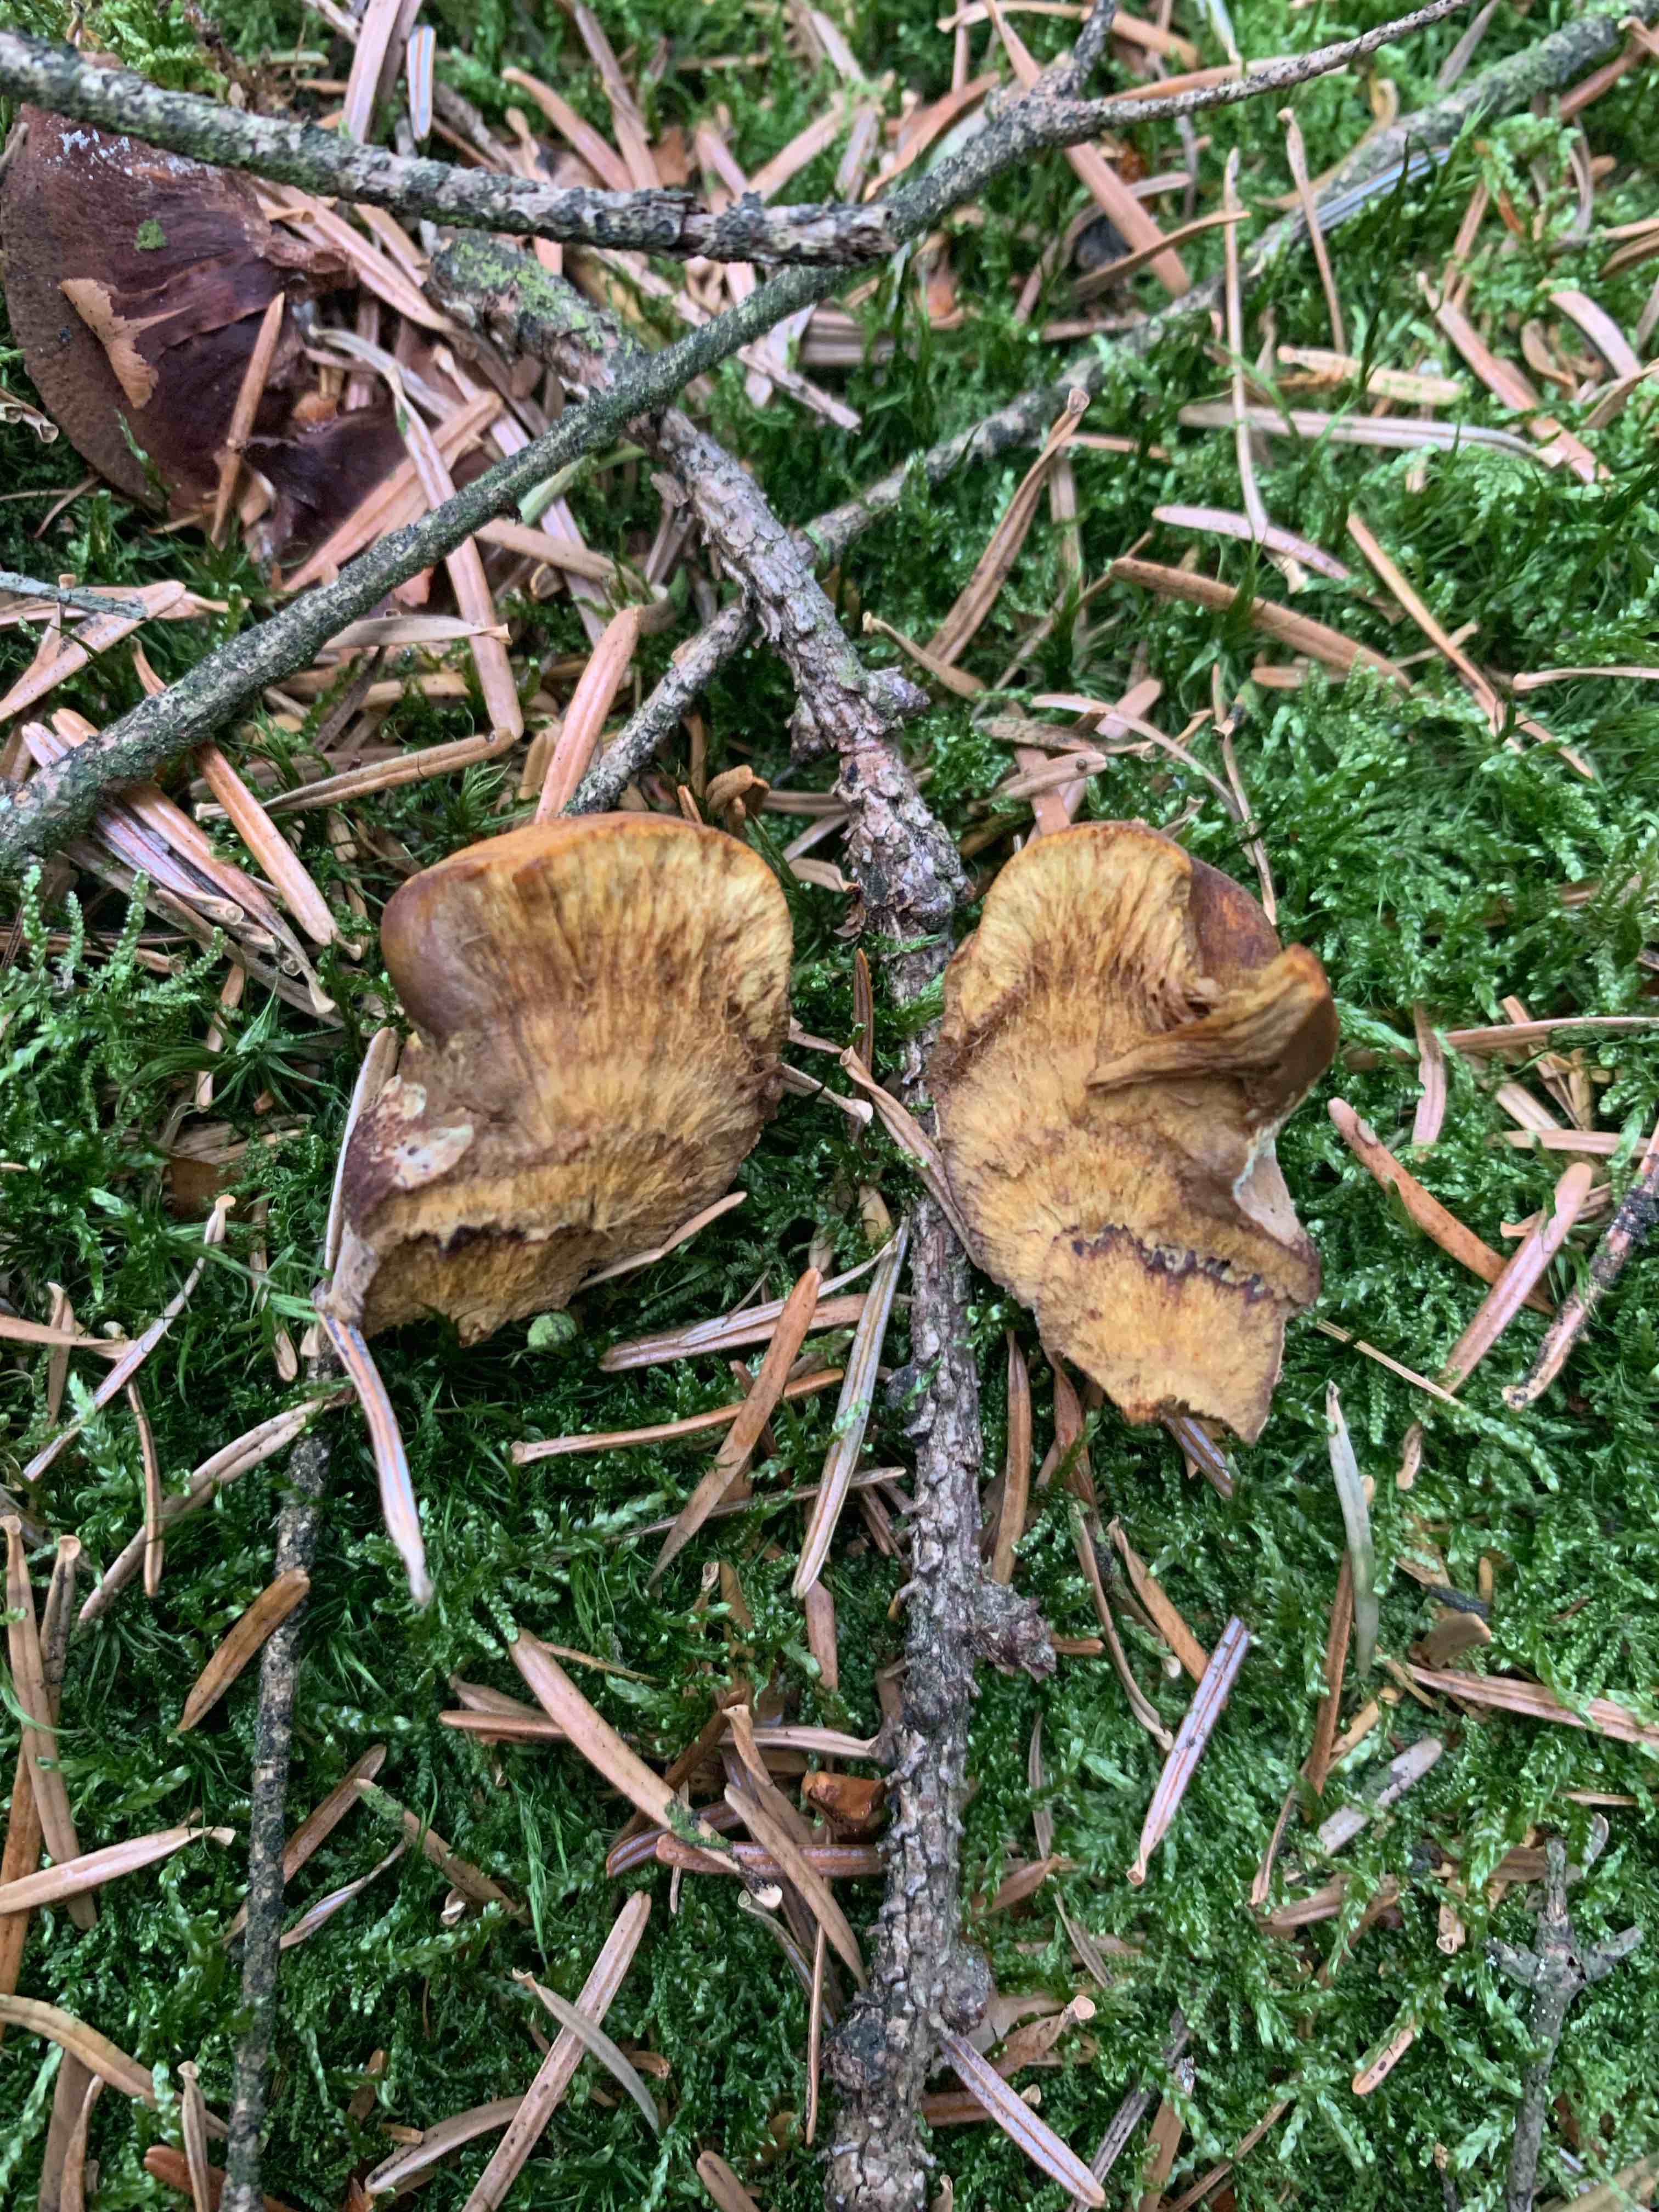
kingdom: Fungi
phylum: Basidiomycota
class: Agaricomycetes
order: Polyporales
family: Laetiporaceae
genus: Phaeolus
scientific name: Phaeolus schweinitzii
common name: brunporesvamp
